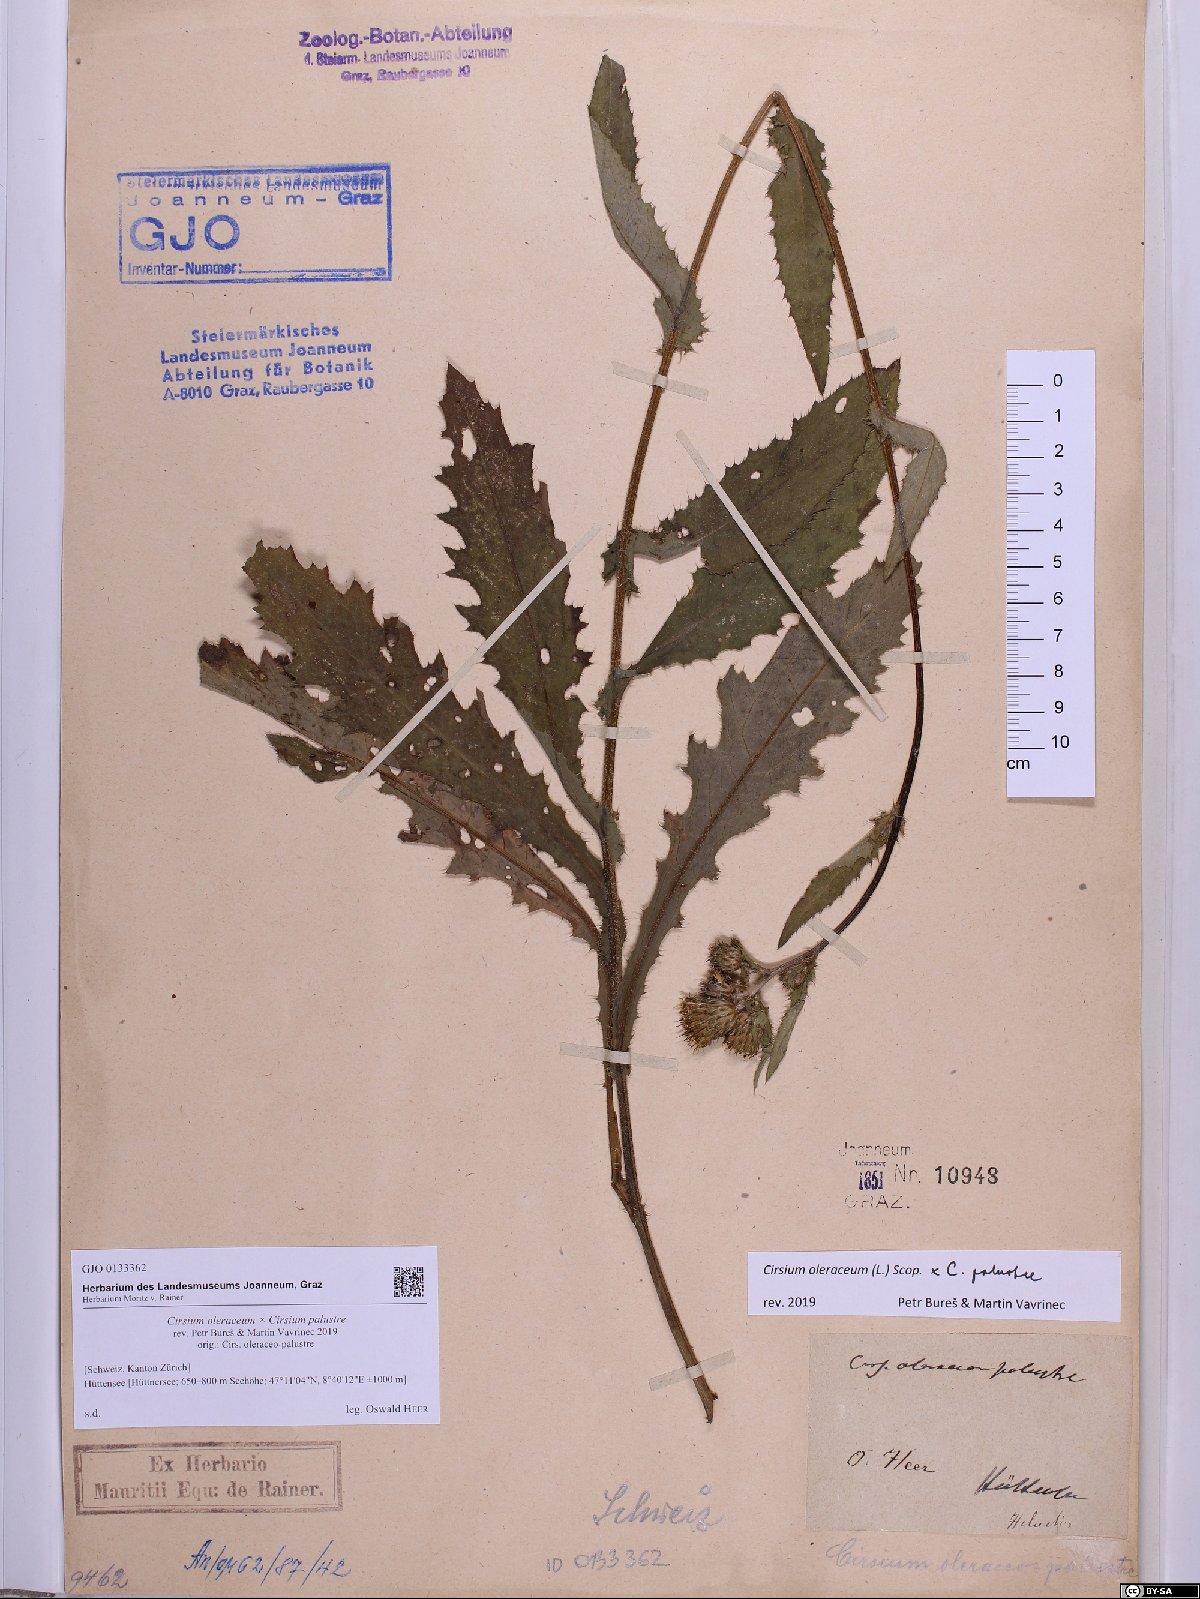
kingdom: Plantae
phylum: Tracheophyta
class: Magnoliopsida
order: Asterales
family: Asteraceae
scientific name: Asteraceae
